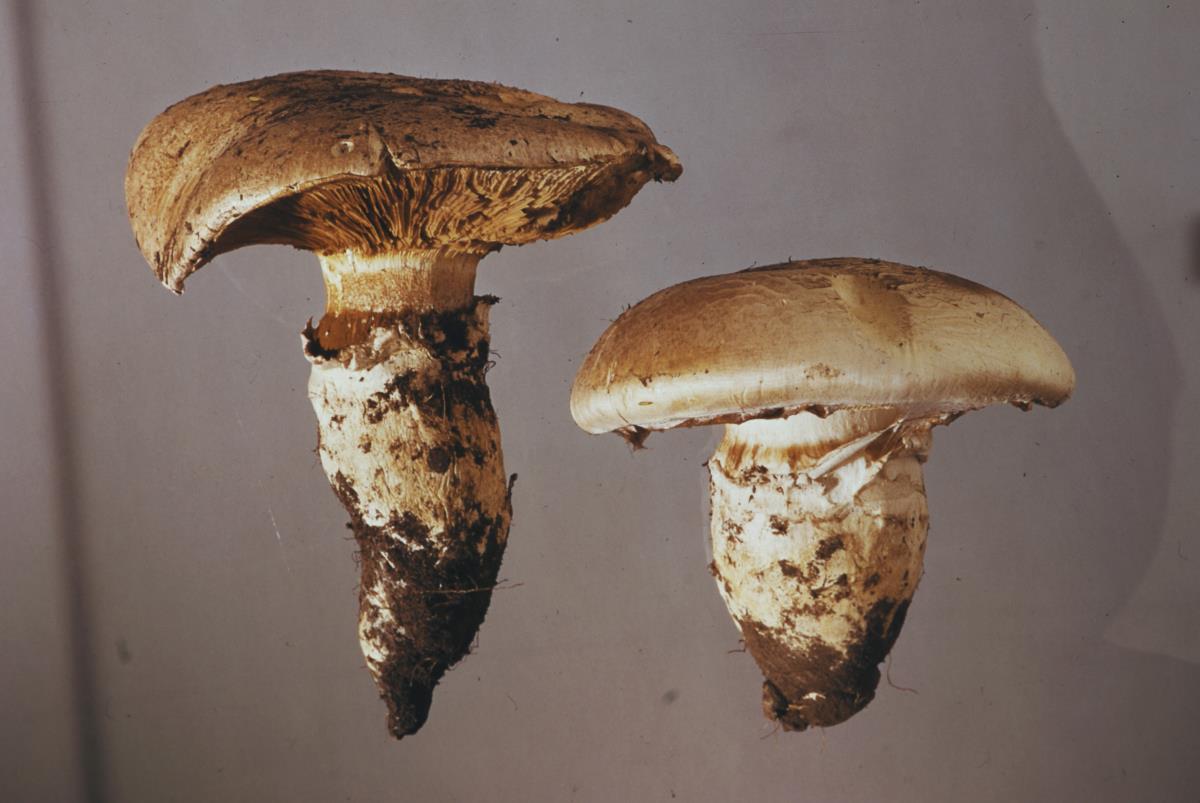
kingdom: Fungi
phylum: Basidiomycota
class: Agaricomycetes
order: Agaricales
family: Cortinariaceae
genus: Austrocortinarius
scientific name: Austrocortinarius australiensis
